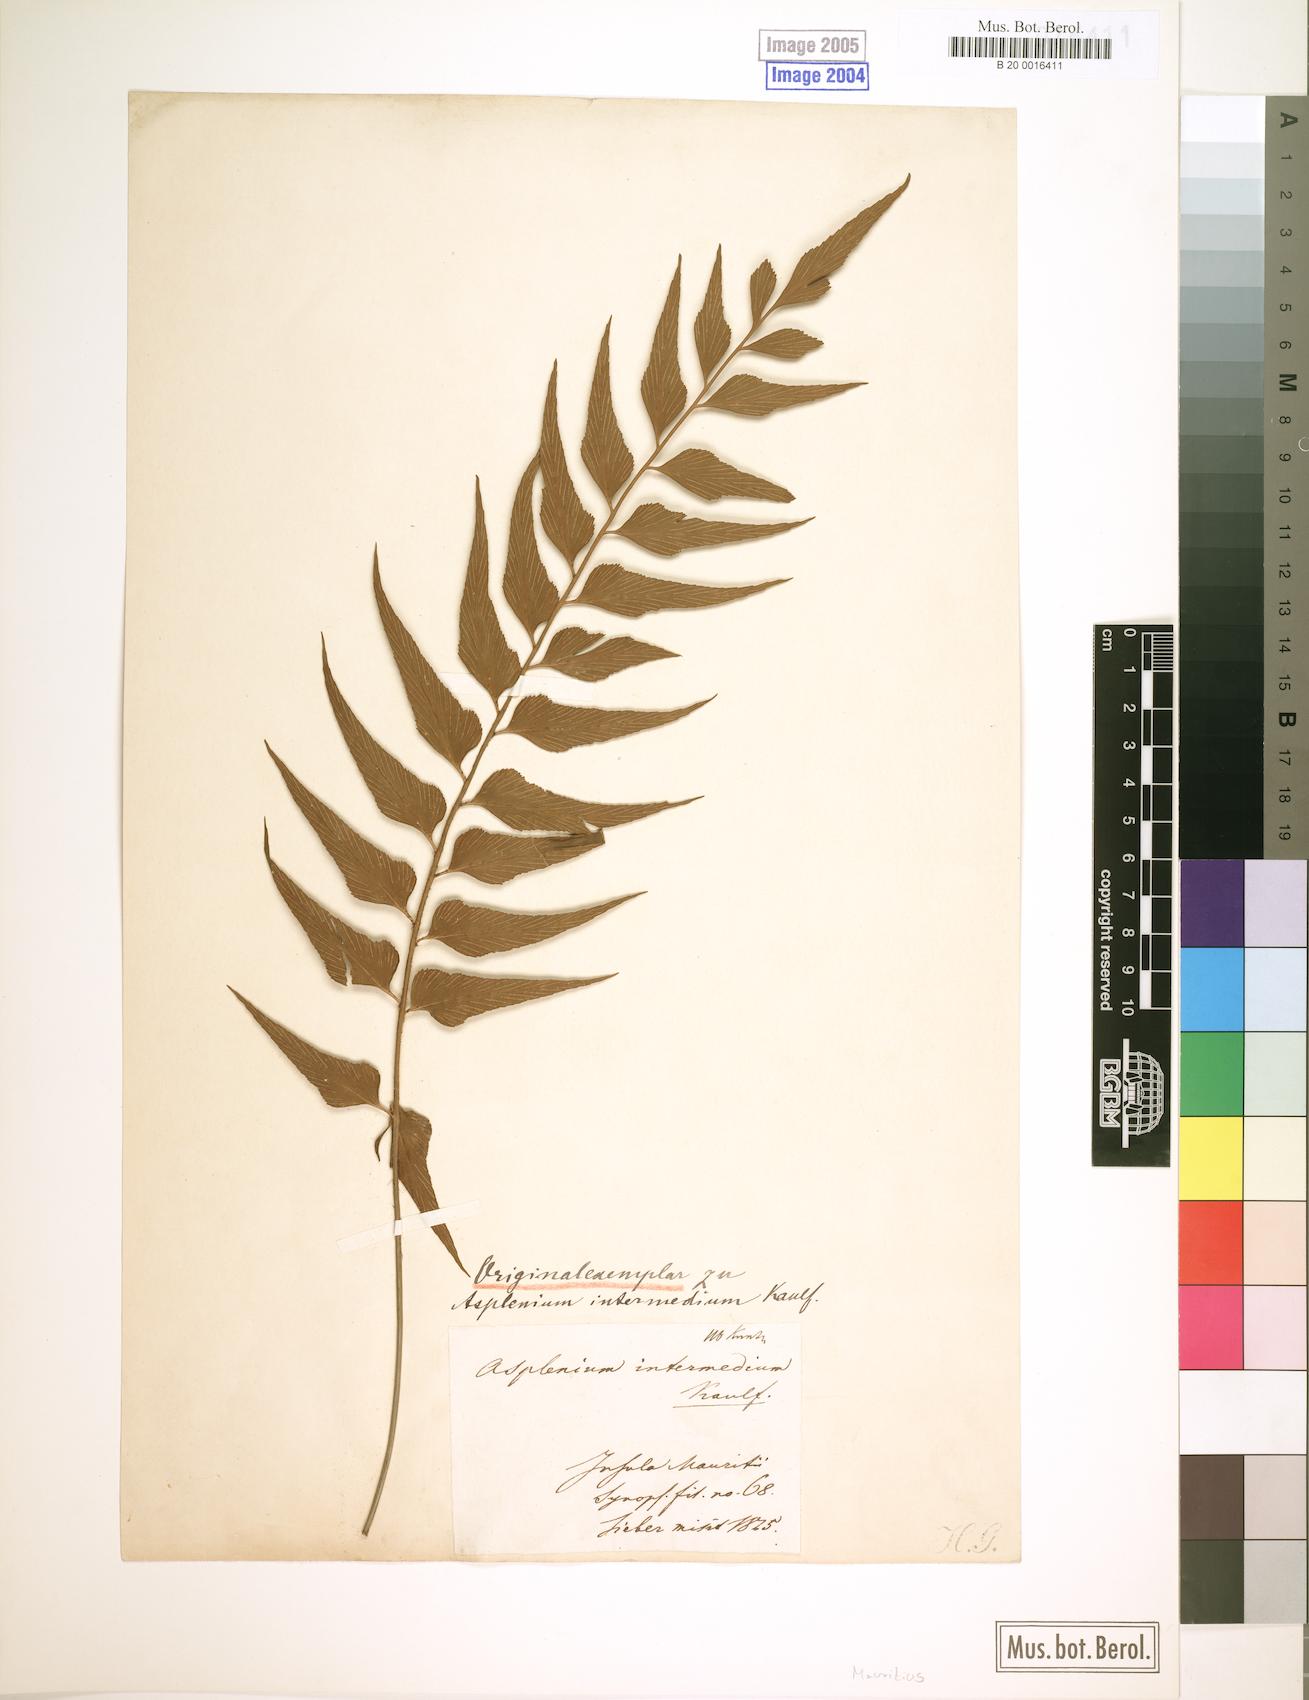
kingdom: Plantae
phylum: Tracheophyta
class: Polypodiopsida
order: Polypodiales
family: Aspleniaceae
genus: Asplenium
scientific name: Asplenium simile
